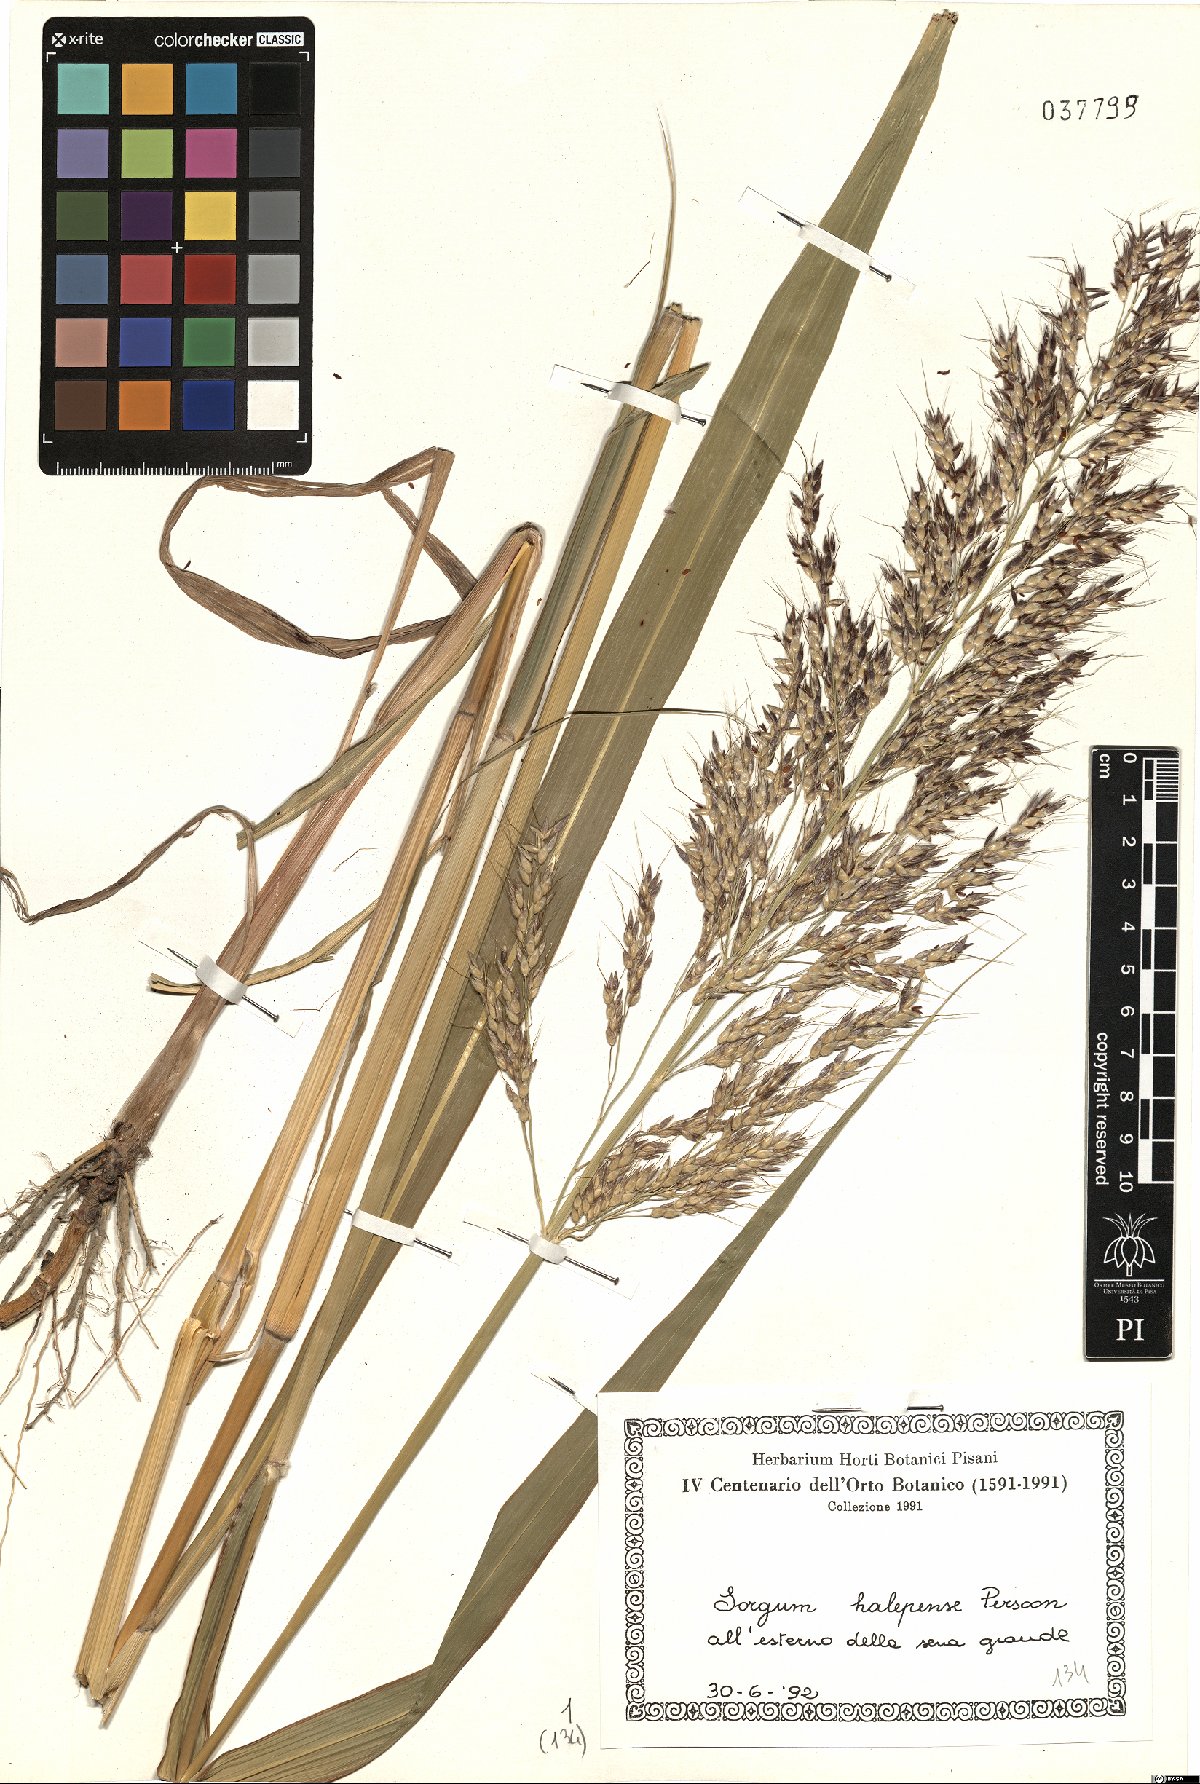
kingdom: Plantae
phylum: Tracheophyta
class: Liliopsida
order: Poales
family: Poaceae
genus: Sorghum
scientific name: Sorghum halepense
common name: Johnson-grass
